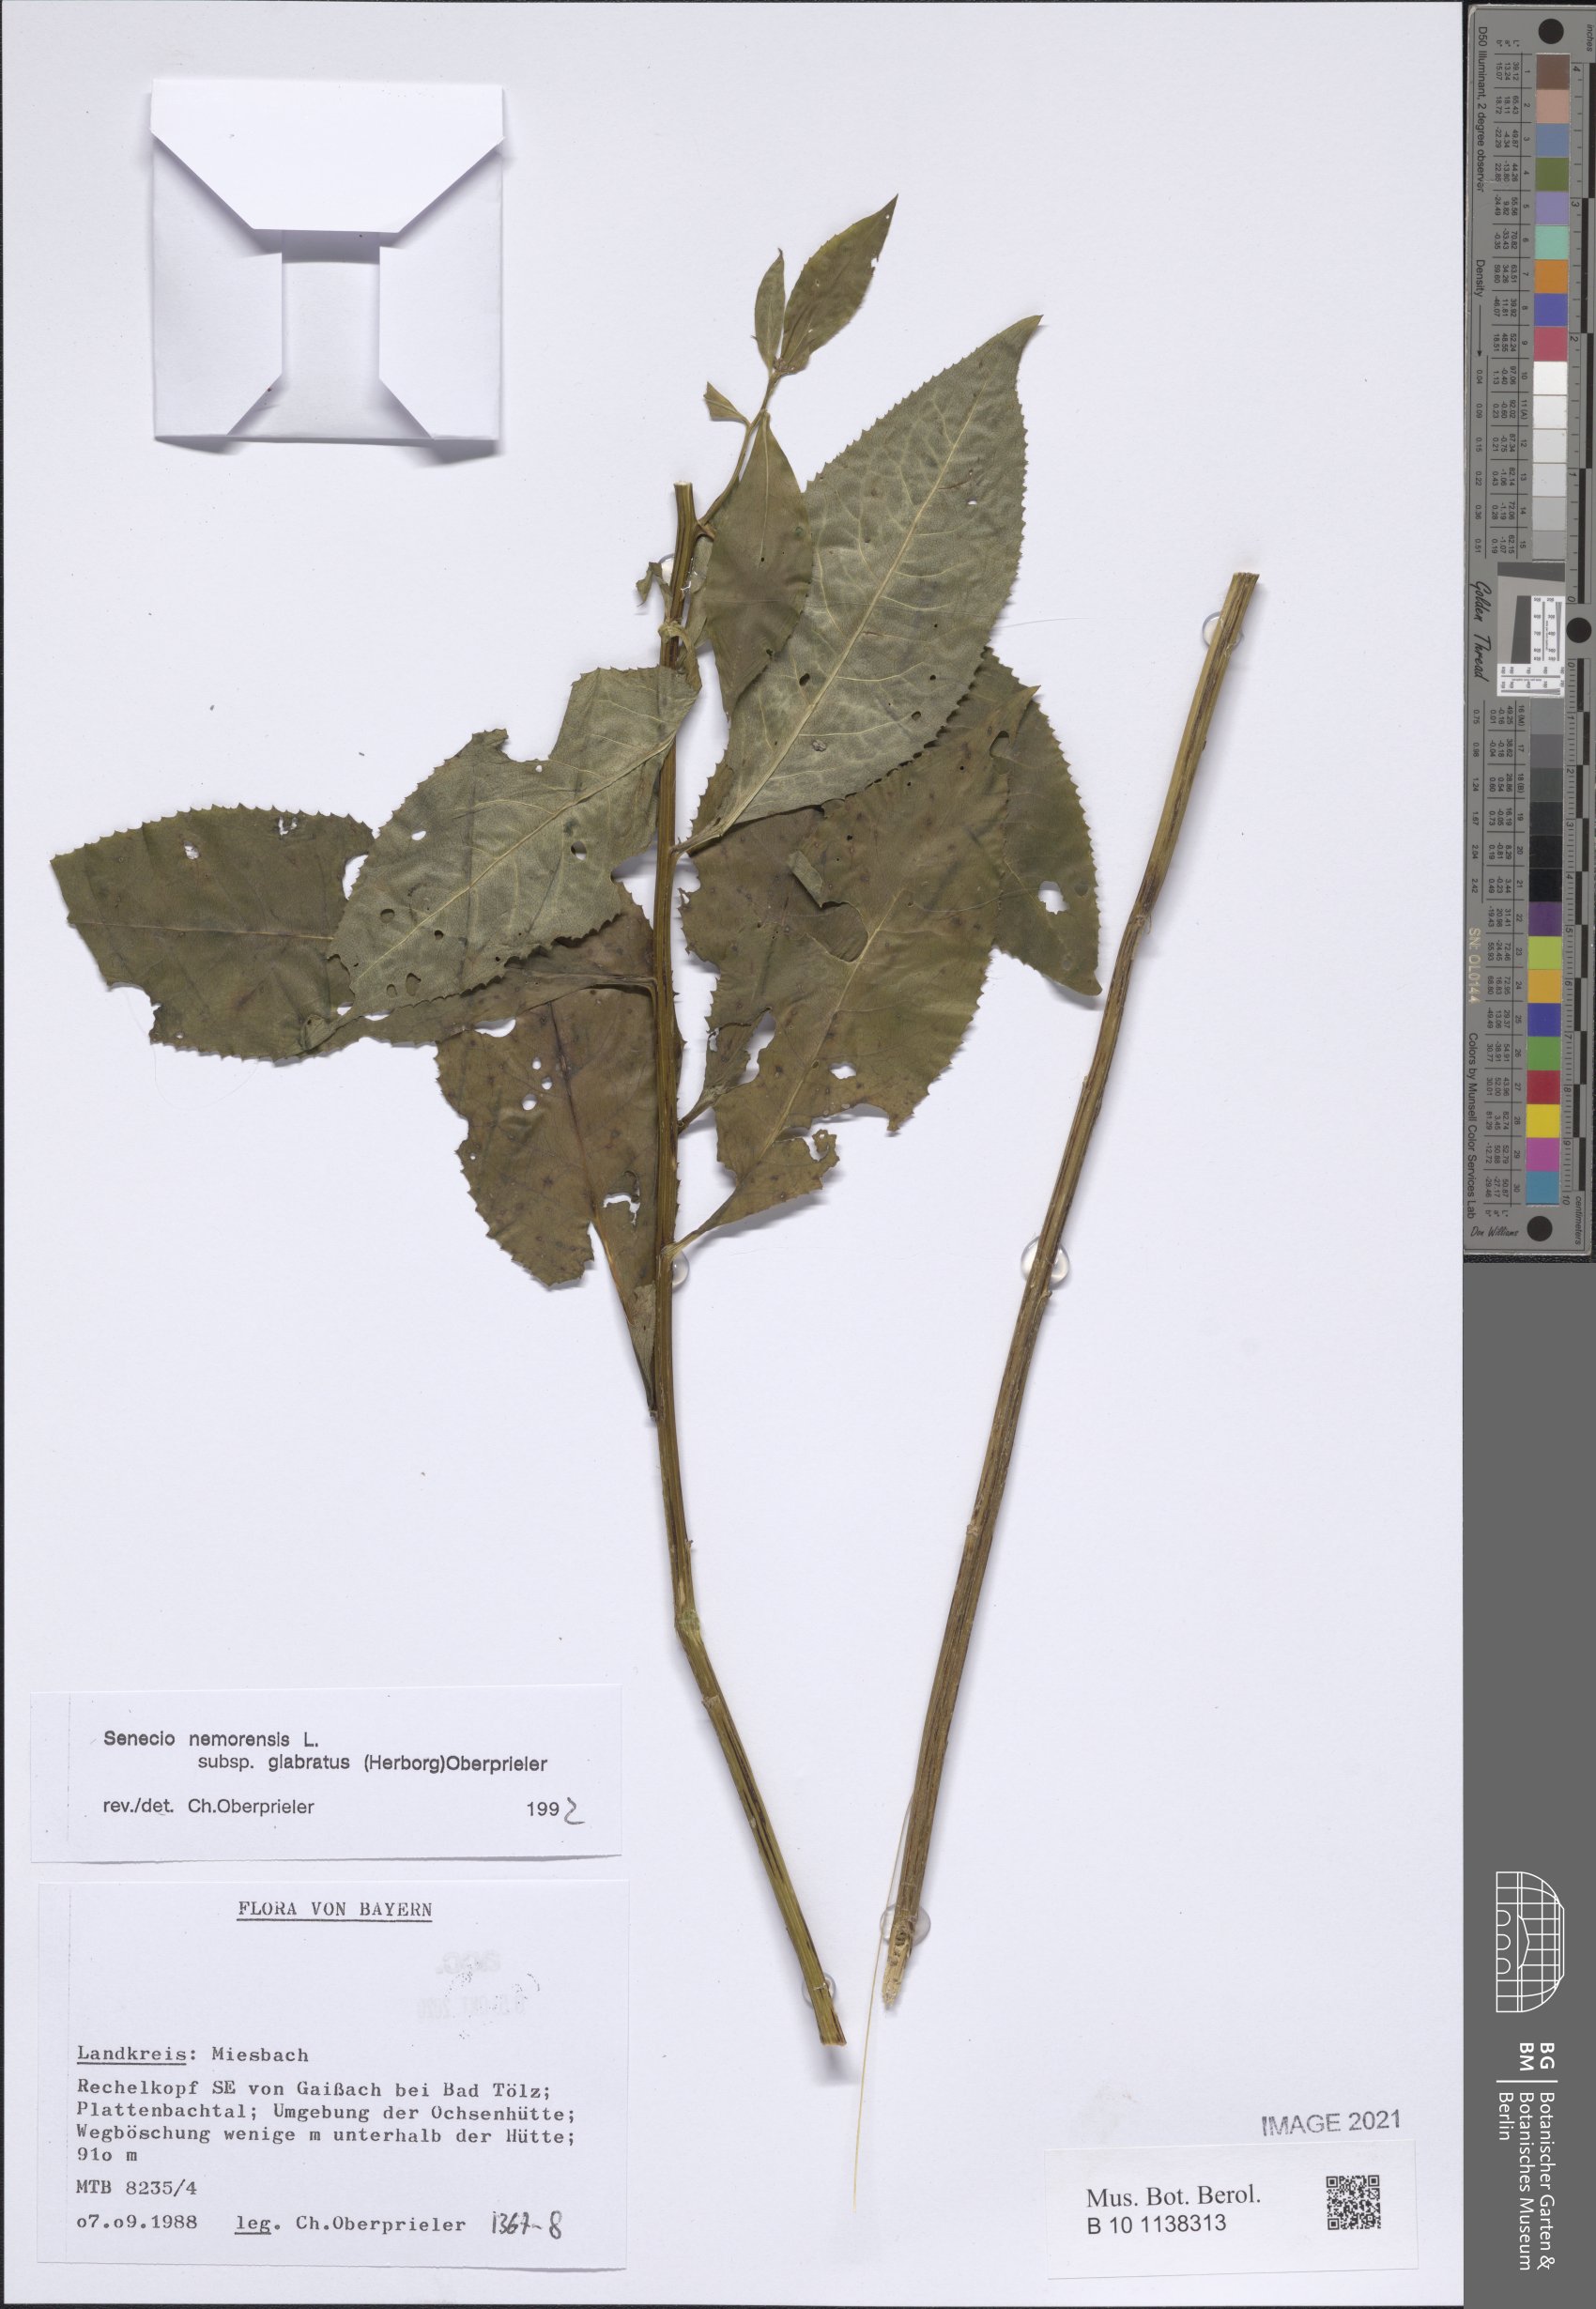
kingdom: Plantae
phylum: Tracheophyta
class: Magnoliopsida
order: Asterales
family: Asteraceae
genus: Senecio
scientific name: Senecio germanicus
